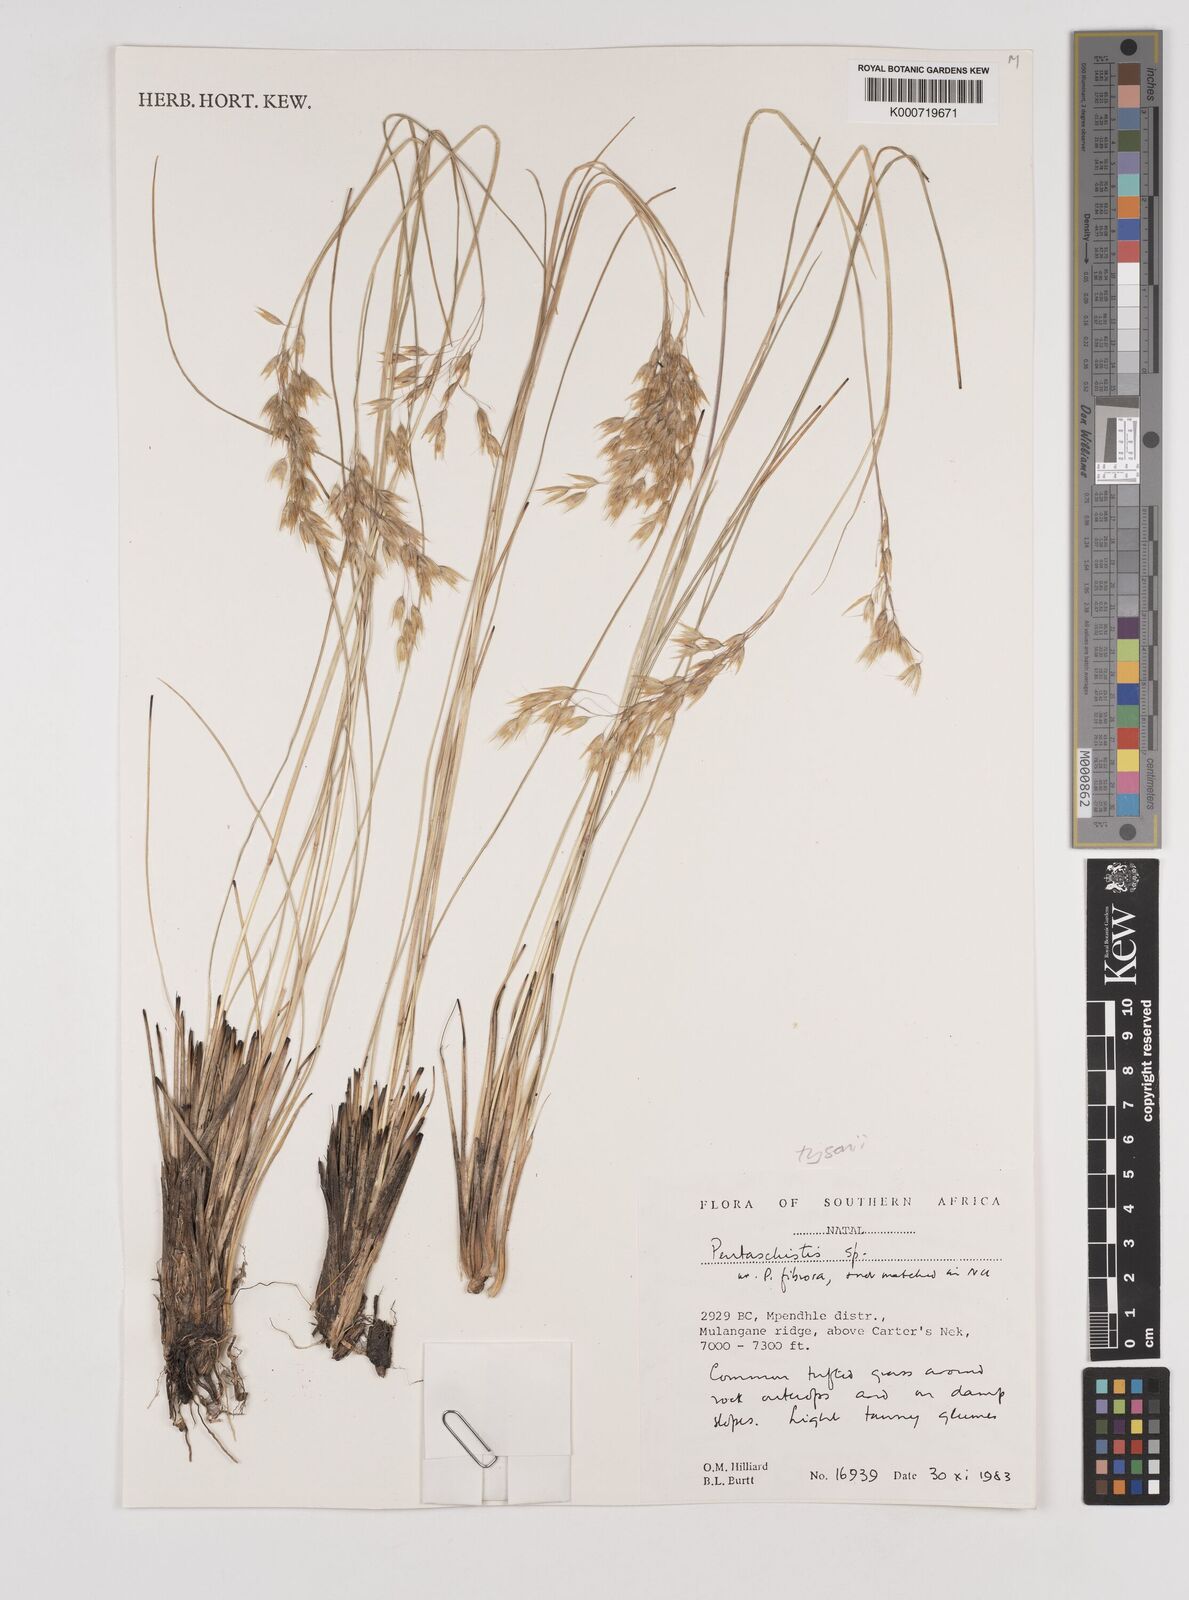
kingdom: Plantae
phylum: Tracheophyta
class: Liliopsida
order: Poales
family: Poaceae
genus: Pentameris
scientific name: Pentameris tysonii
